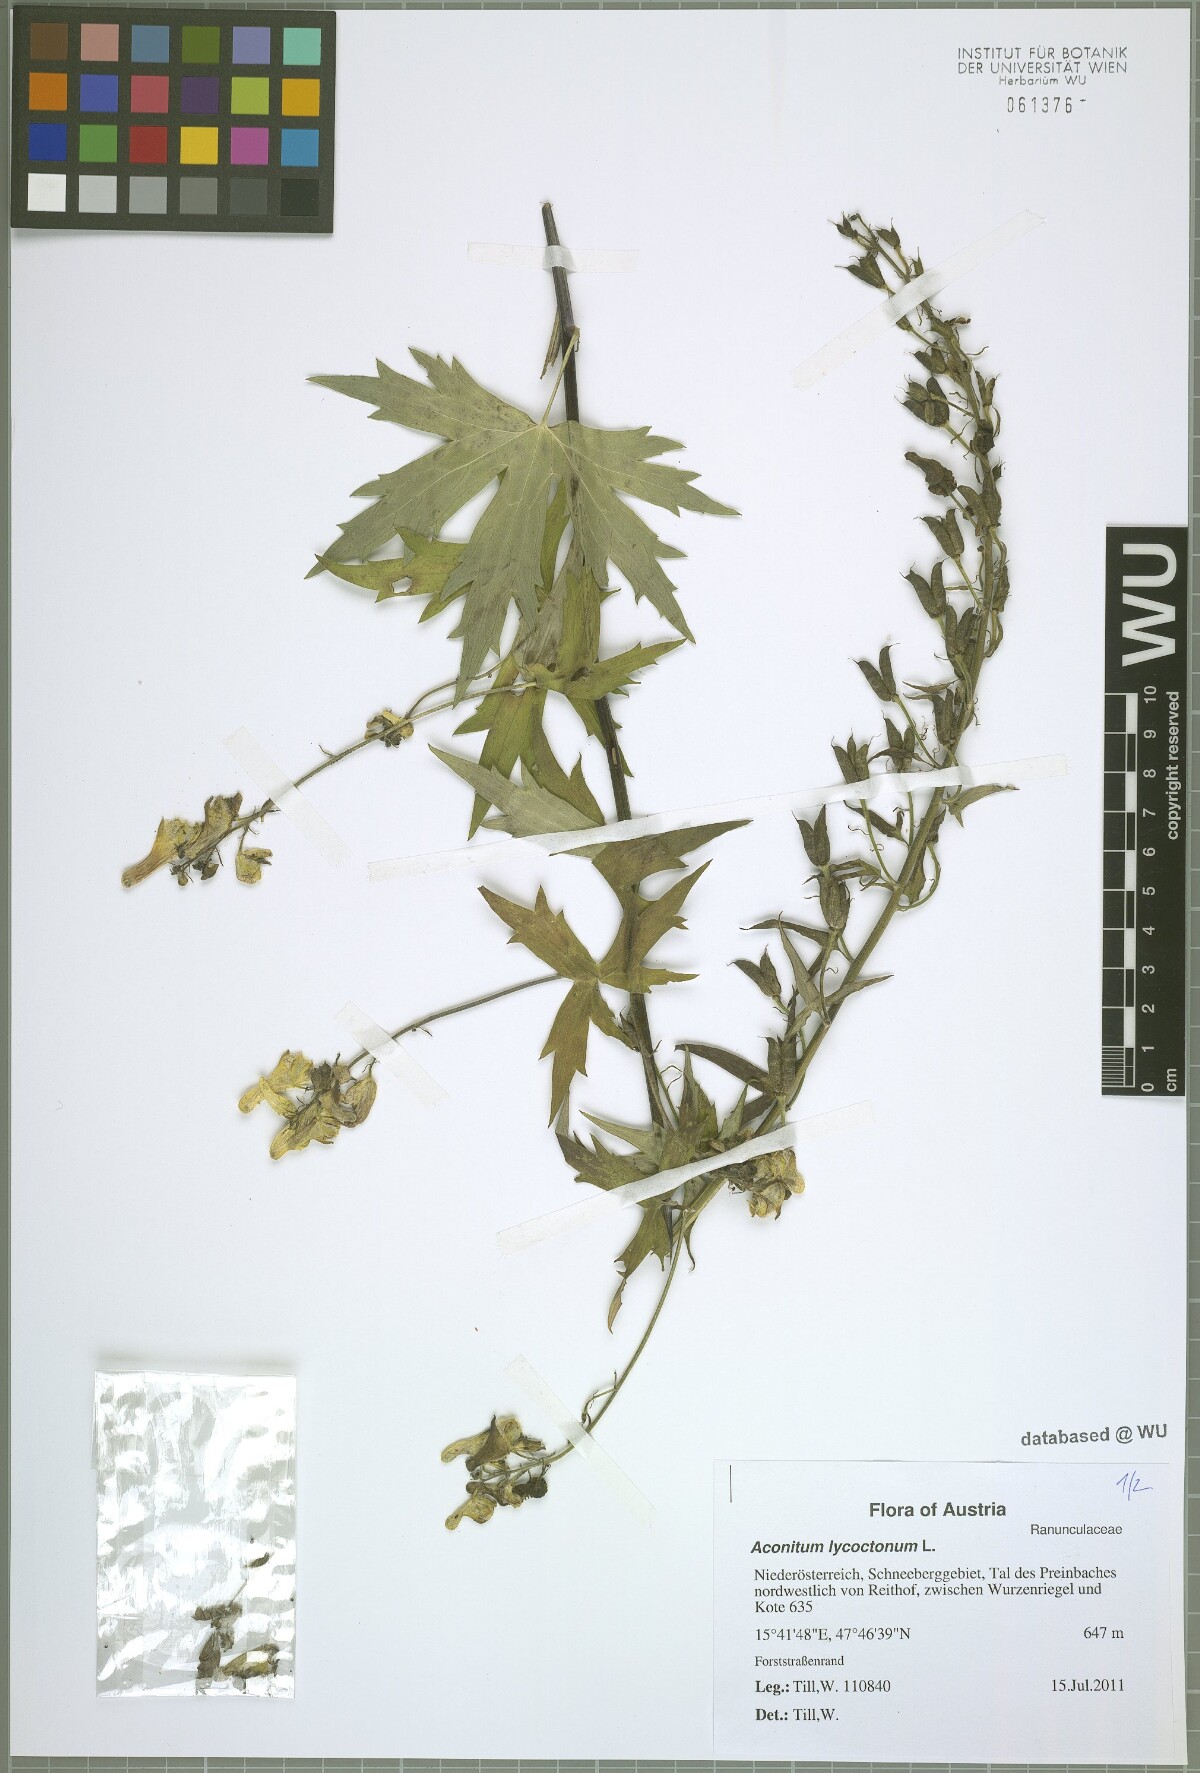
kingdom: Plantae
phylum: Tracheophyta
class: Magnoliopsida
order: Ranunculales
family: Ranunculaceae
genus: Aconitum
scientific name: Aconitum lycoctonum
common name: Wolf's-bane
